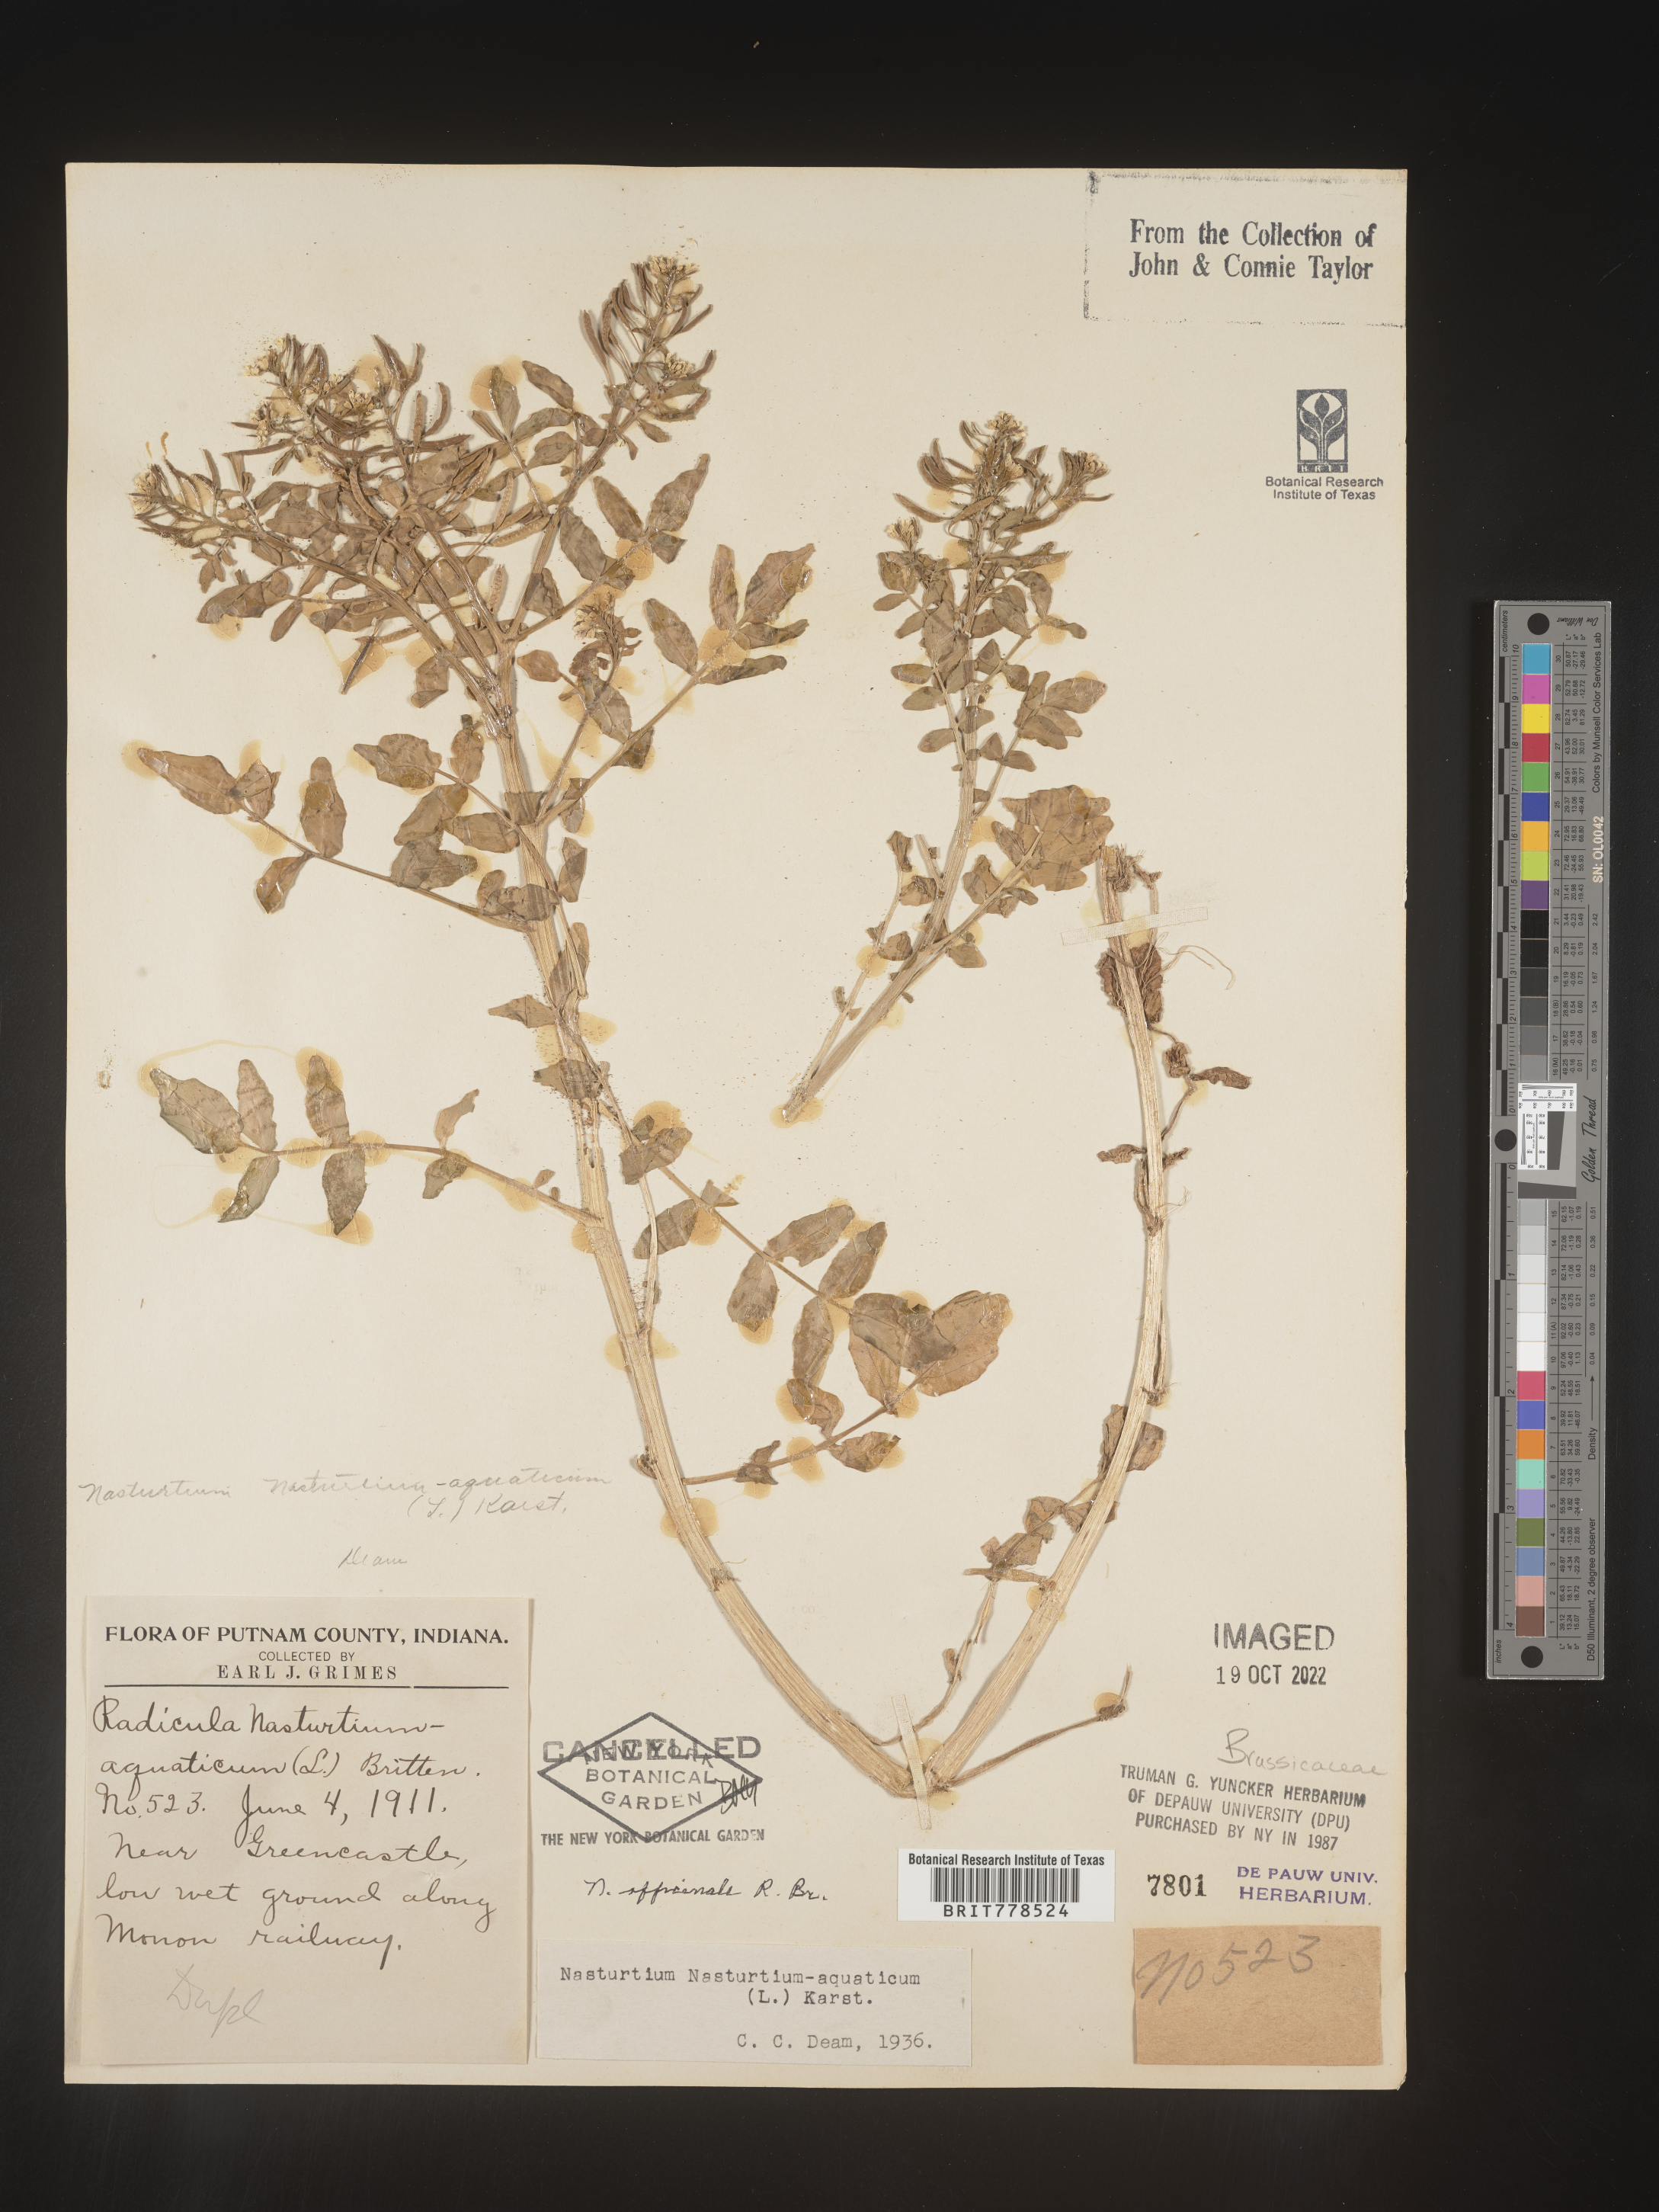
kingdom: Plantae
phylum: Tracheophyta
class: Magnoliopsida
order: Brassicales
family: Brassicaceae
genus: Nasturtium
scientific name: Nasturtium officinale
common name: Watercress
